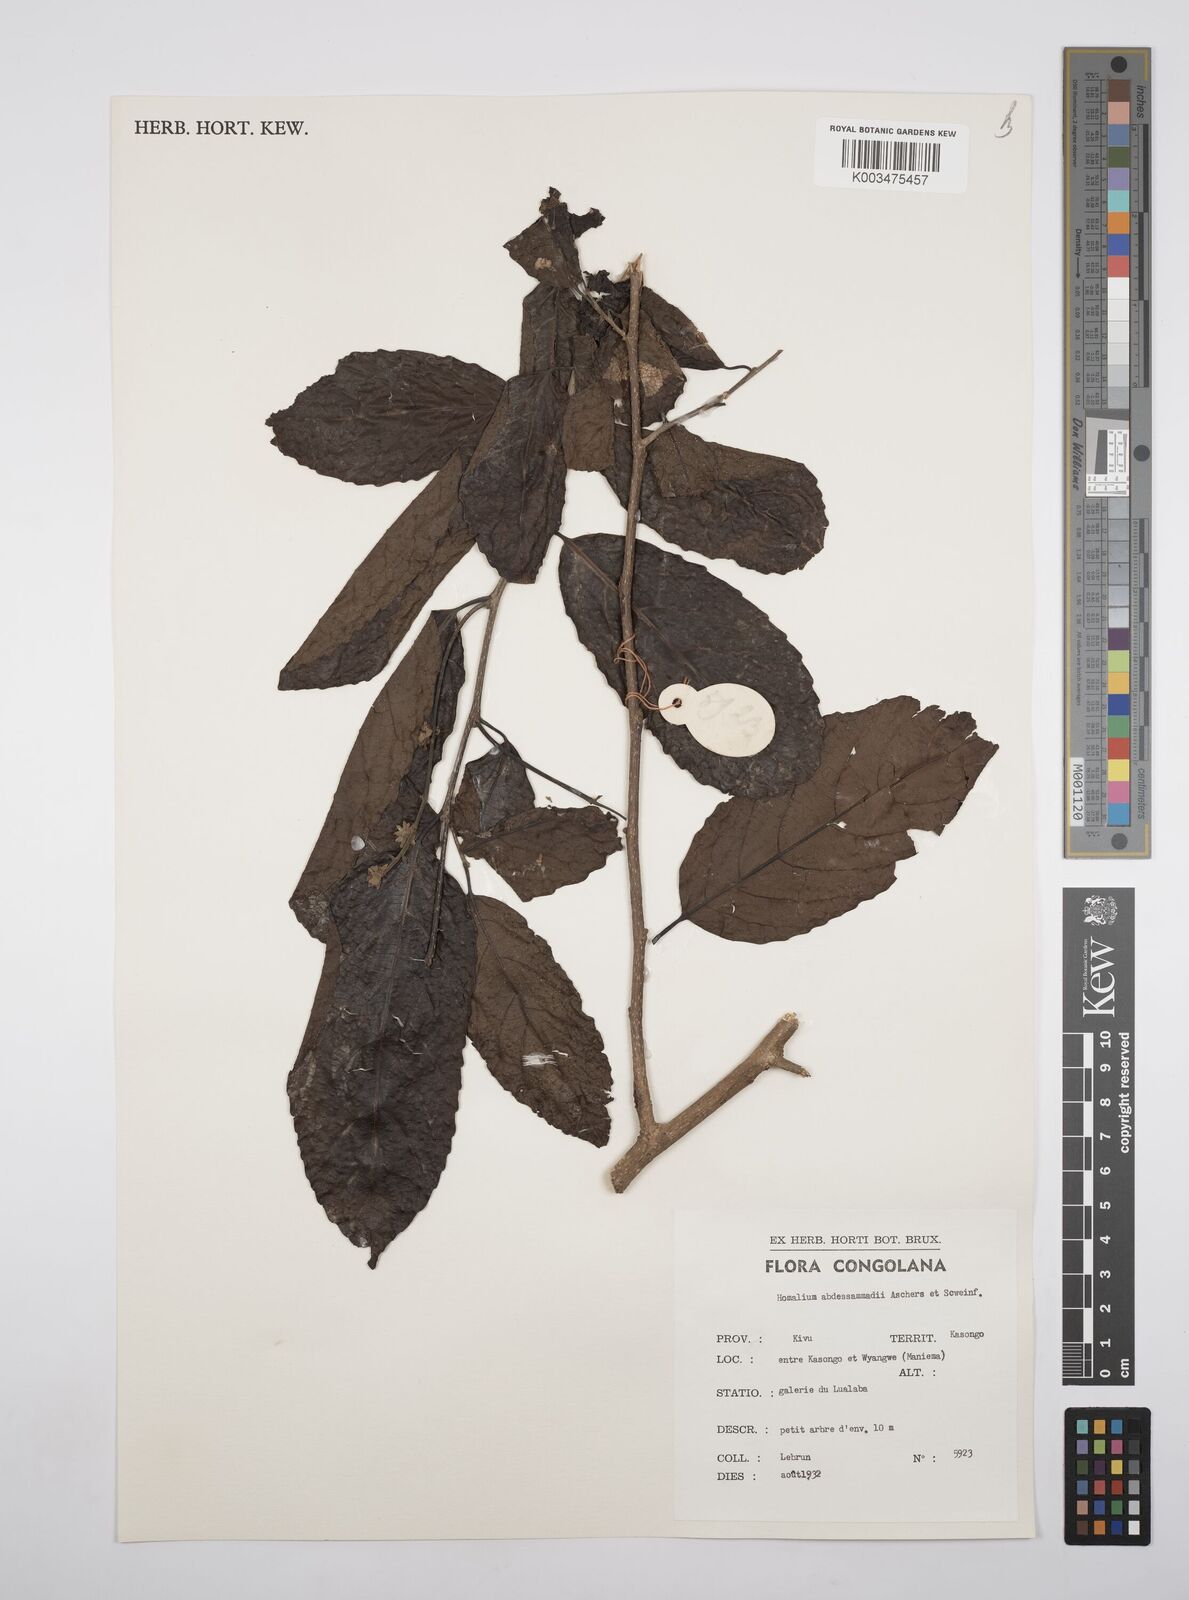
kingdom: Plantae
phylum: Tracheophyta
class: Magnoliopsida
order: Malpighiales
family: Salicaceae
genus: Homalium
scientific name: Homalium abdessammadii
